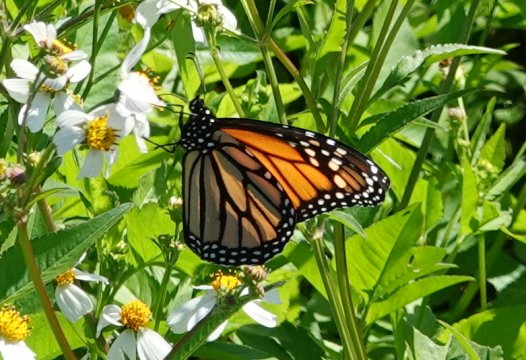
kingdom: Animalia
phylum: Arthropoda
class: Insecta
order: Lepidoptera
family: Nymphalidae
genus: Danaus
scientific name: Danaus plexippus
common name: Monarch
